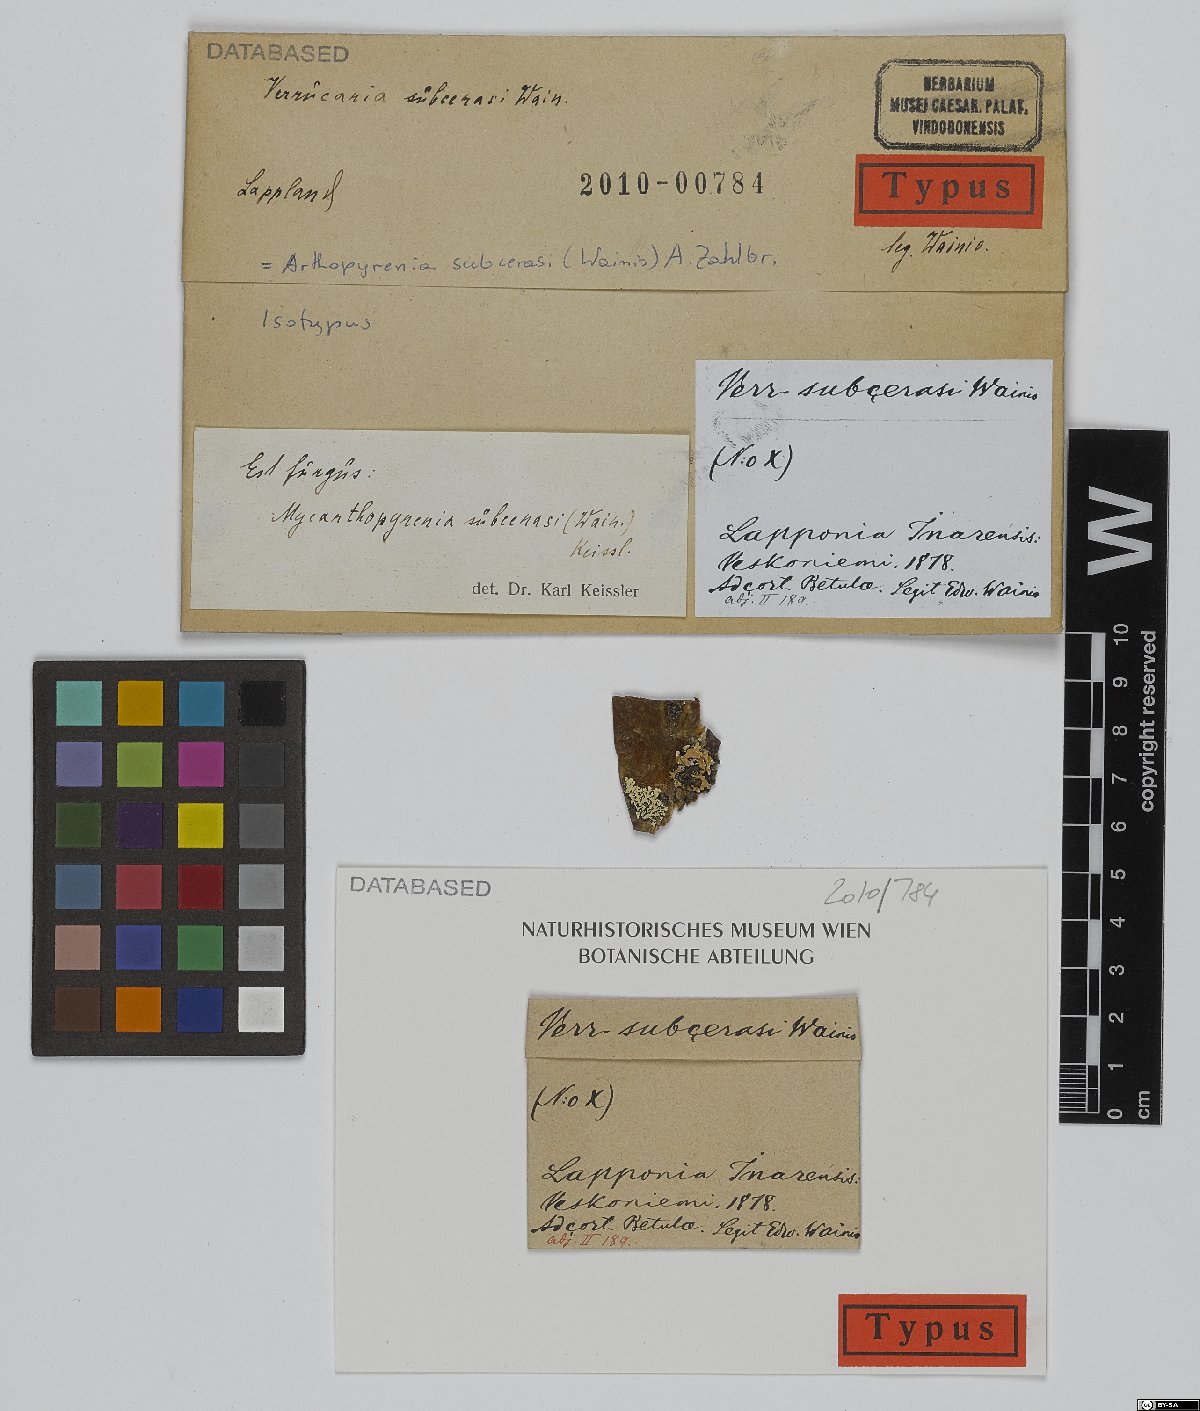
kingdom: Fungi
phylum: Ascomycota
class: Dothideomycetes
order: Trypetheliales
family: Trypetheliaceae
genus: Arthopyrenia
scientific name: Arthopyrenia subcerasi
